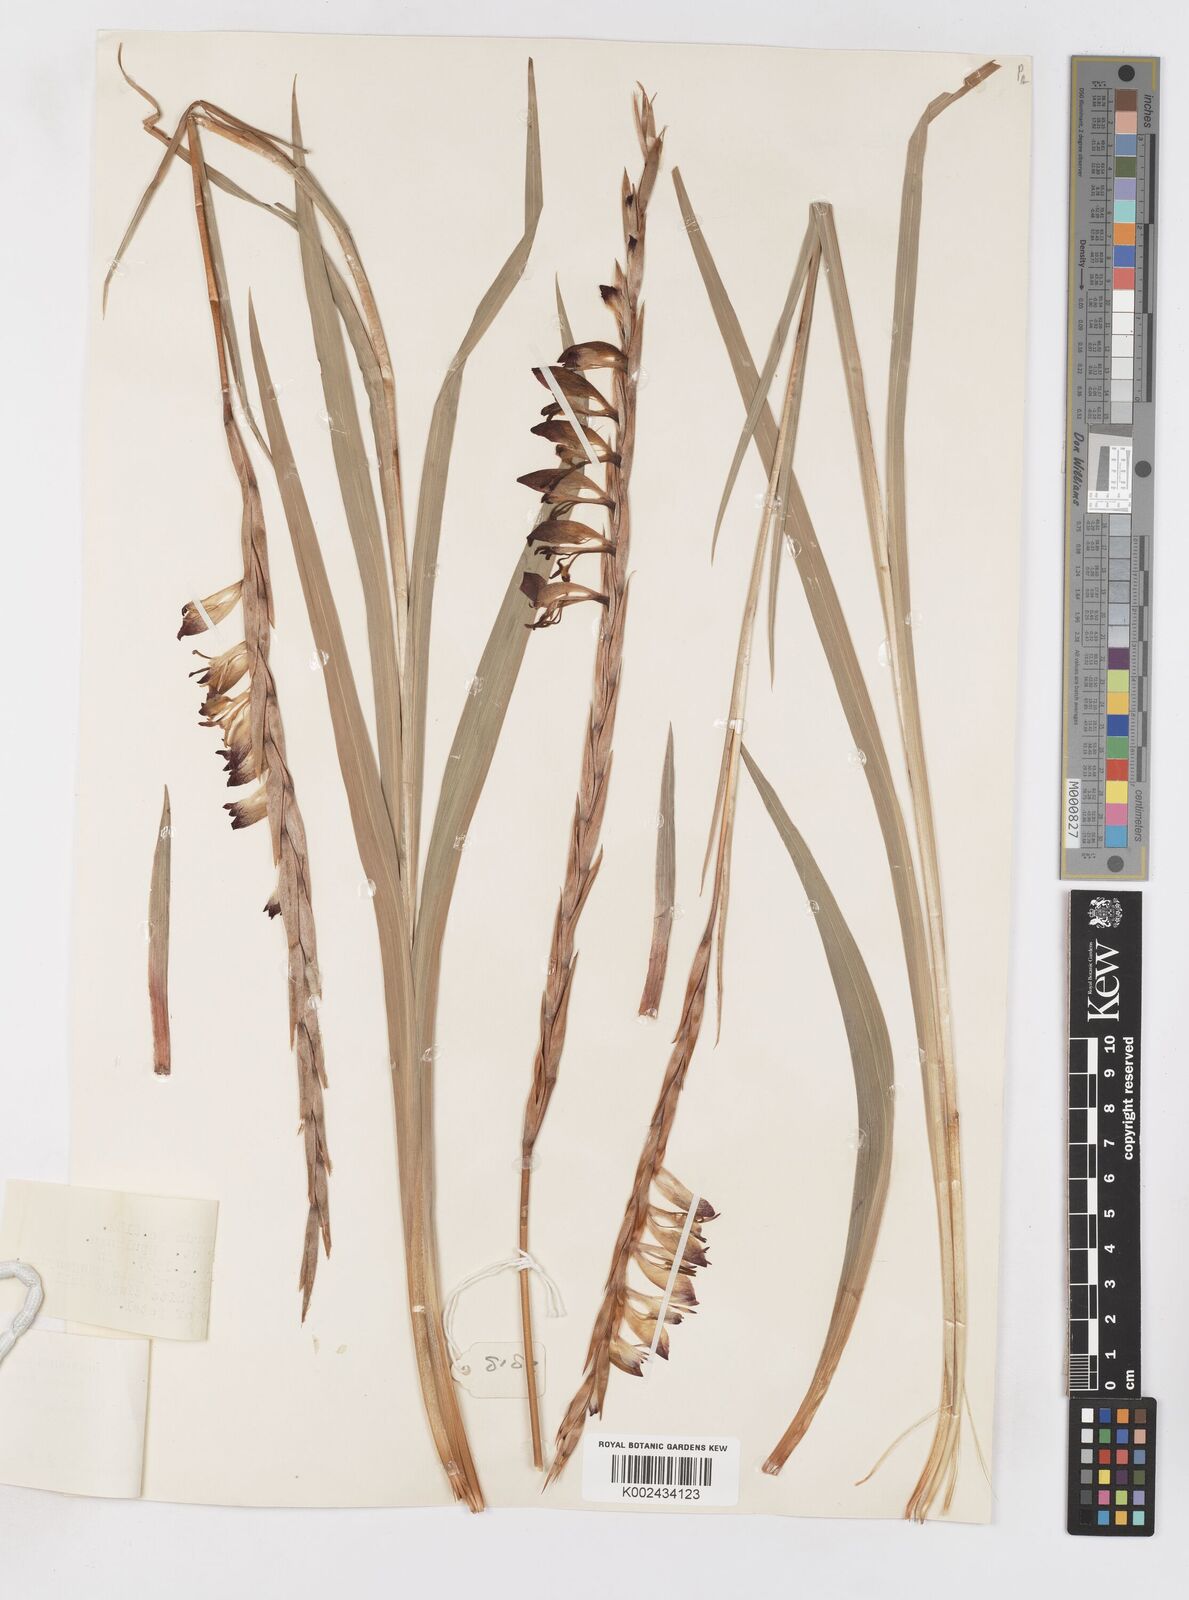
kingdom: Plantae
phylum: Tracheophyta
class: Liliopsida
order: Asparagales
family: Iridaceae
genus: Gladiolus
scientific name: Gladiolus gregarius
